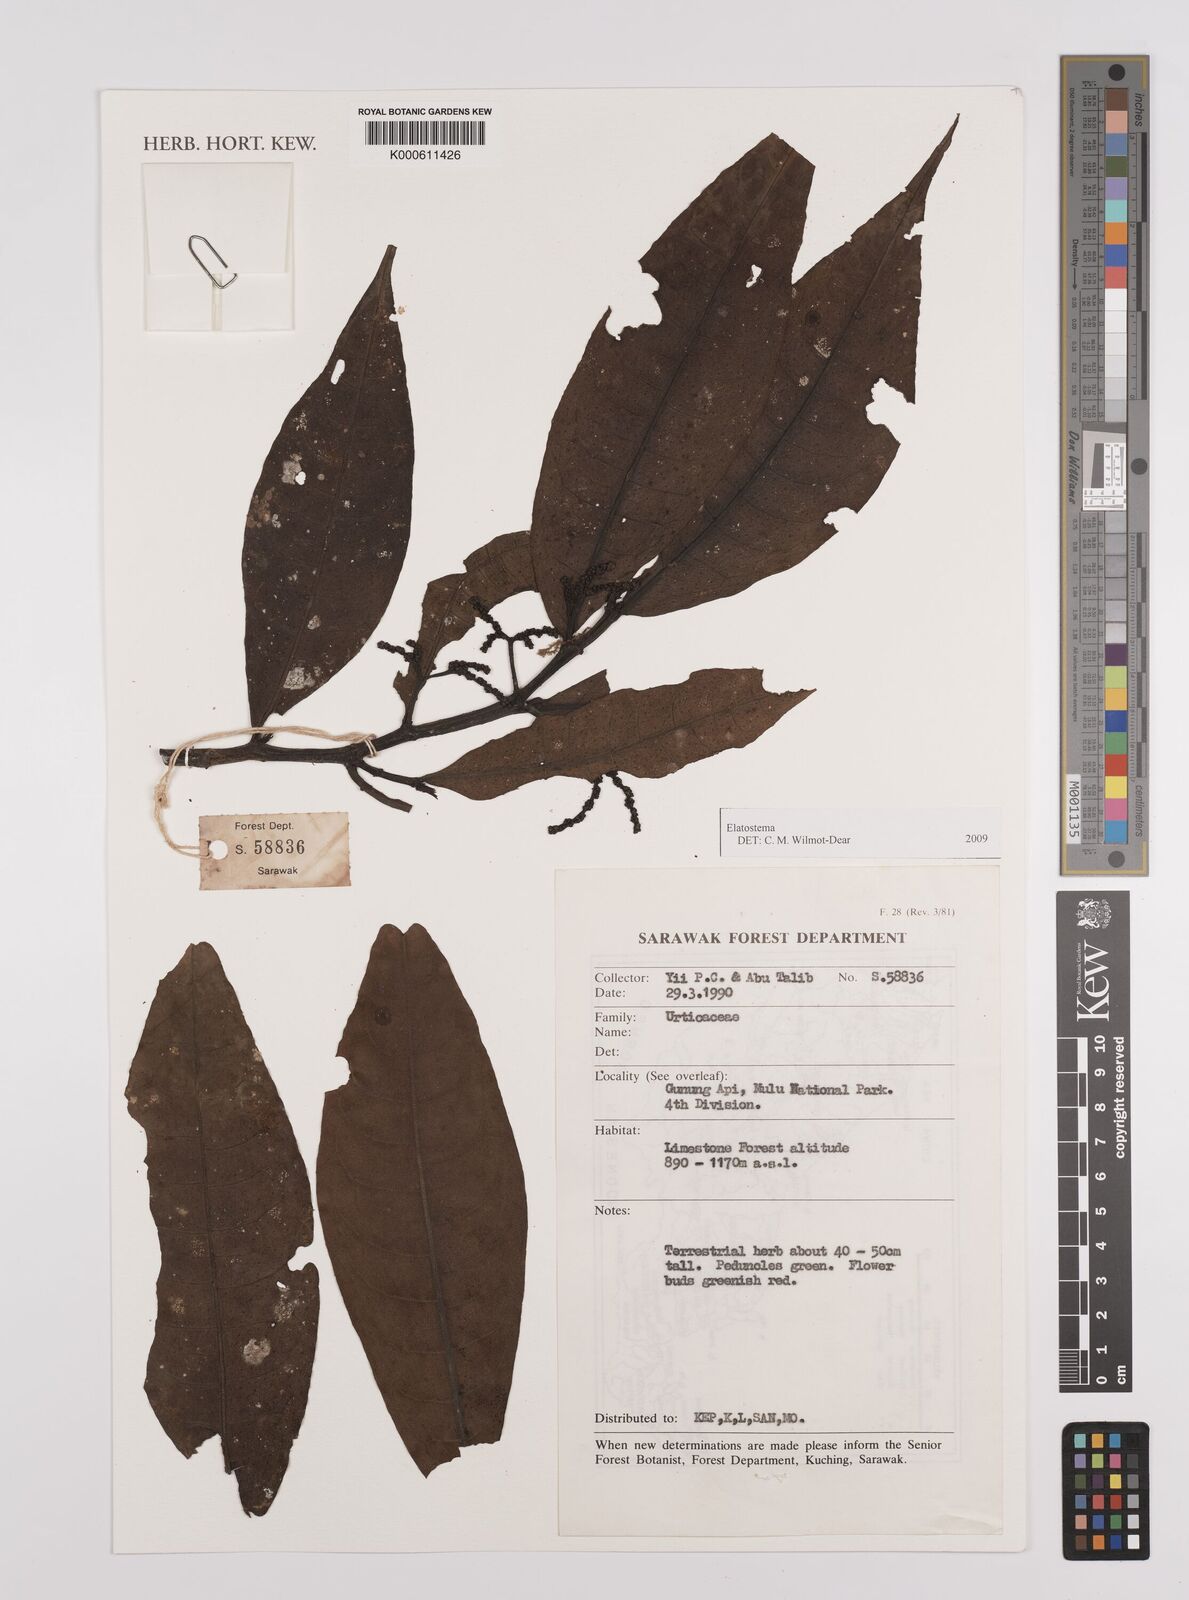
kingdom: Plantae
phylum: Tracheophyta
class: Magnoliopsida
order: Rosales
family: Urticaceae
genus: Elatostema
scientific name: Elatostema
